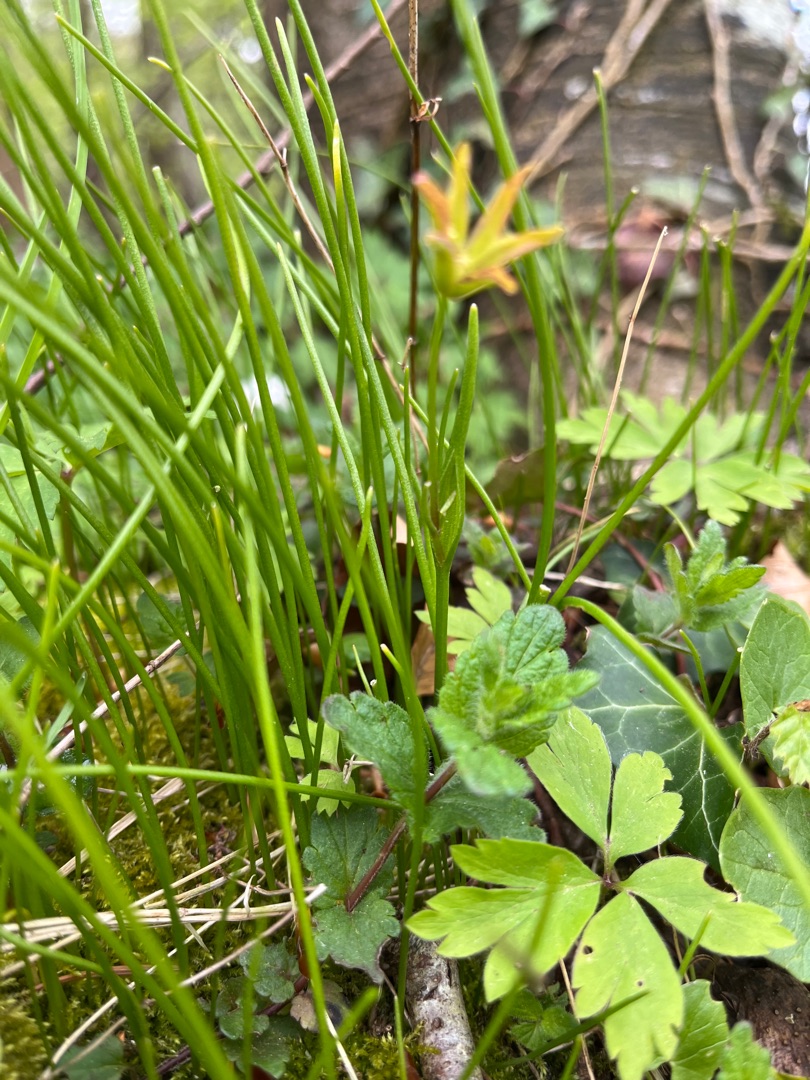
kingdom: Plantae
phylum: Tracheophyta
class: Liliopsida
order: Liliales
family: Liliaceae
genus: Gagea
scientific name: Gagea spathacea
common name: Hylster-guldstjerne
